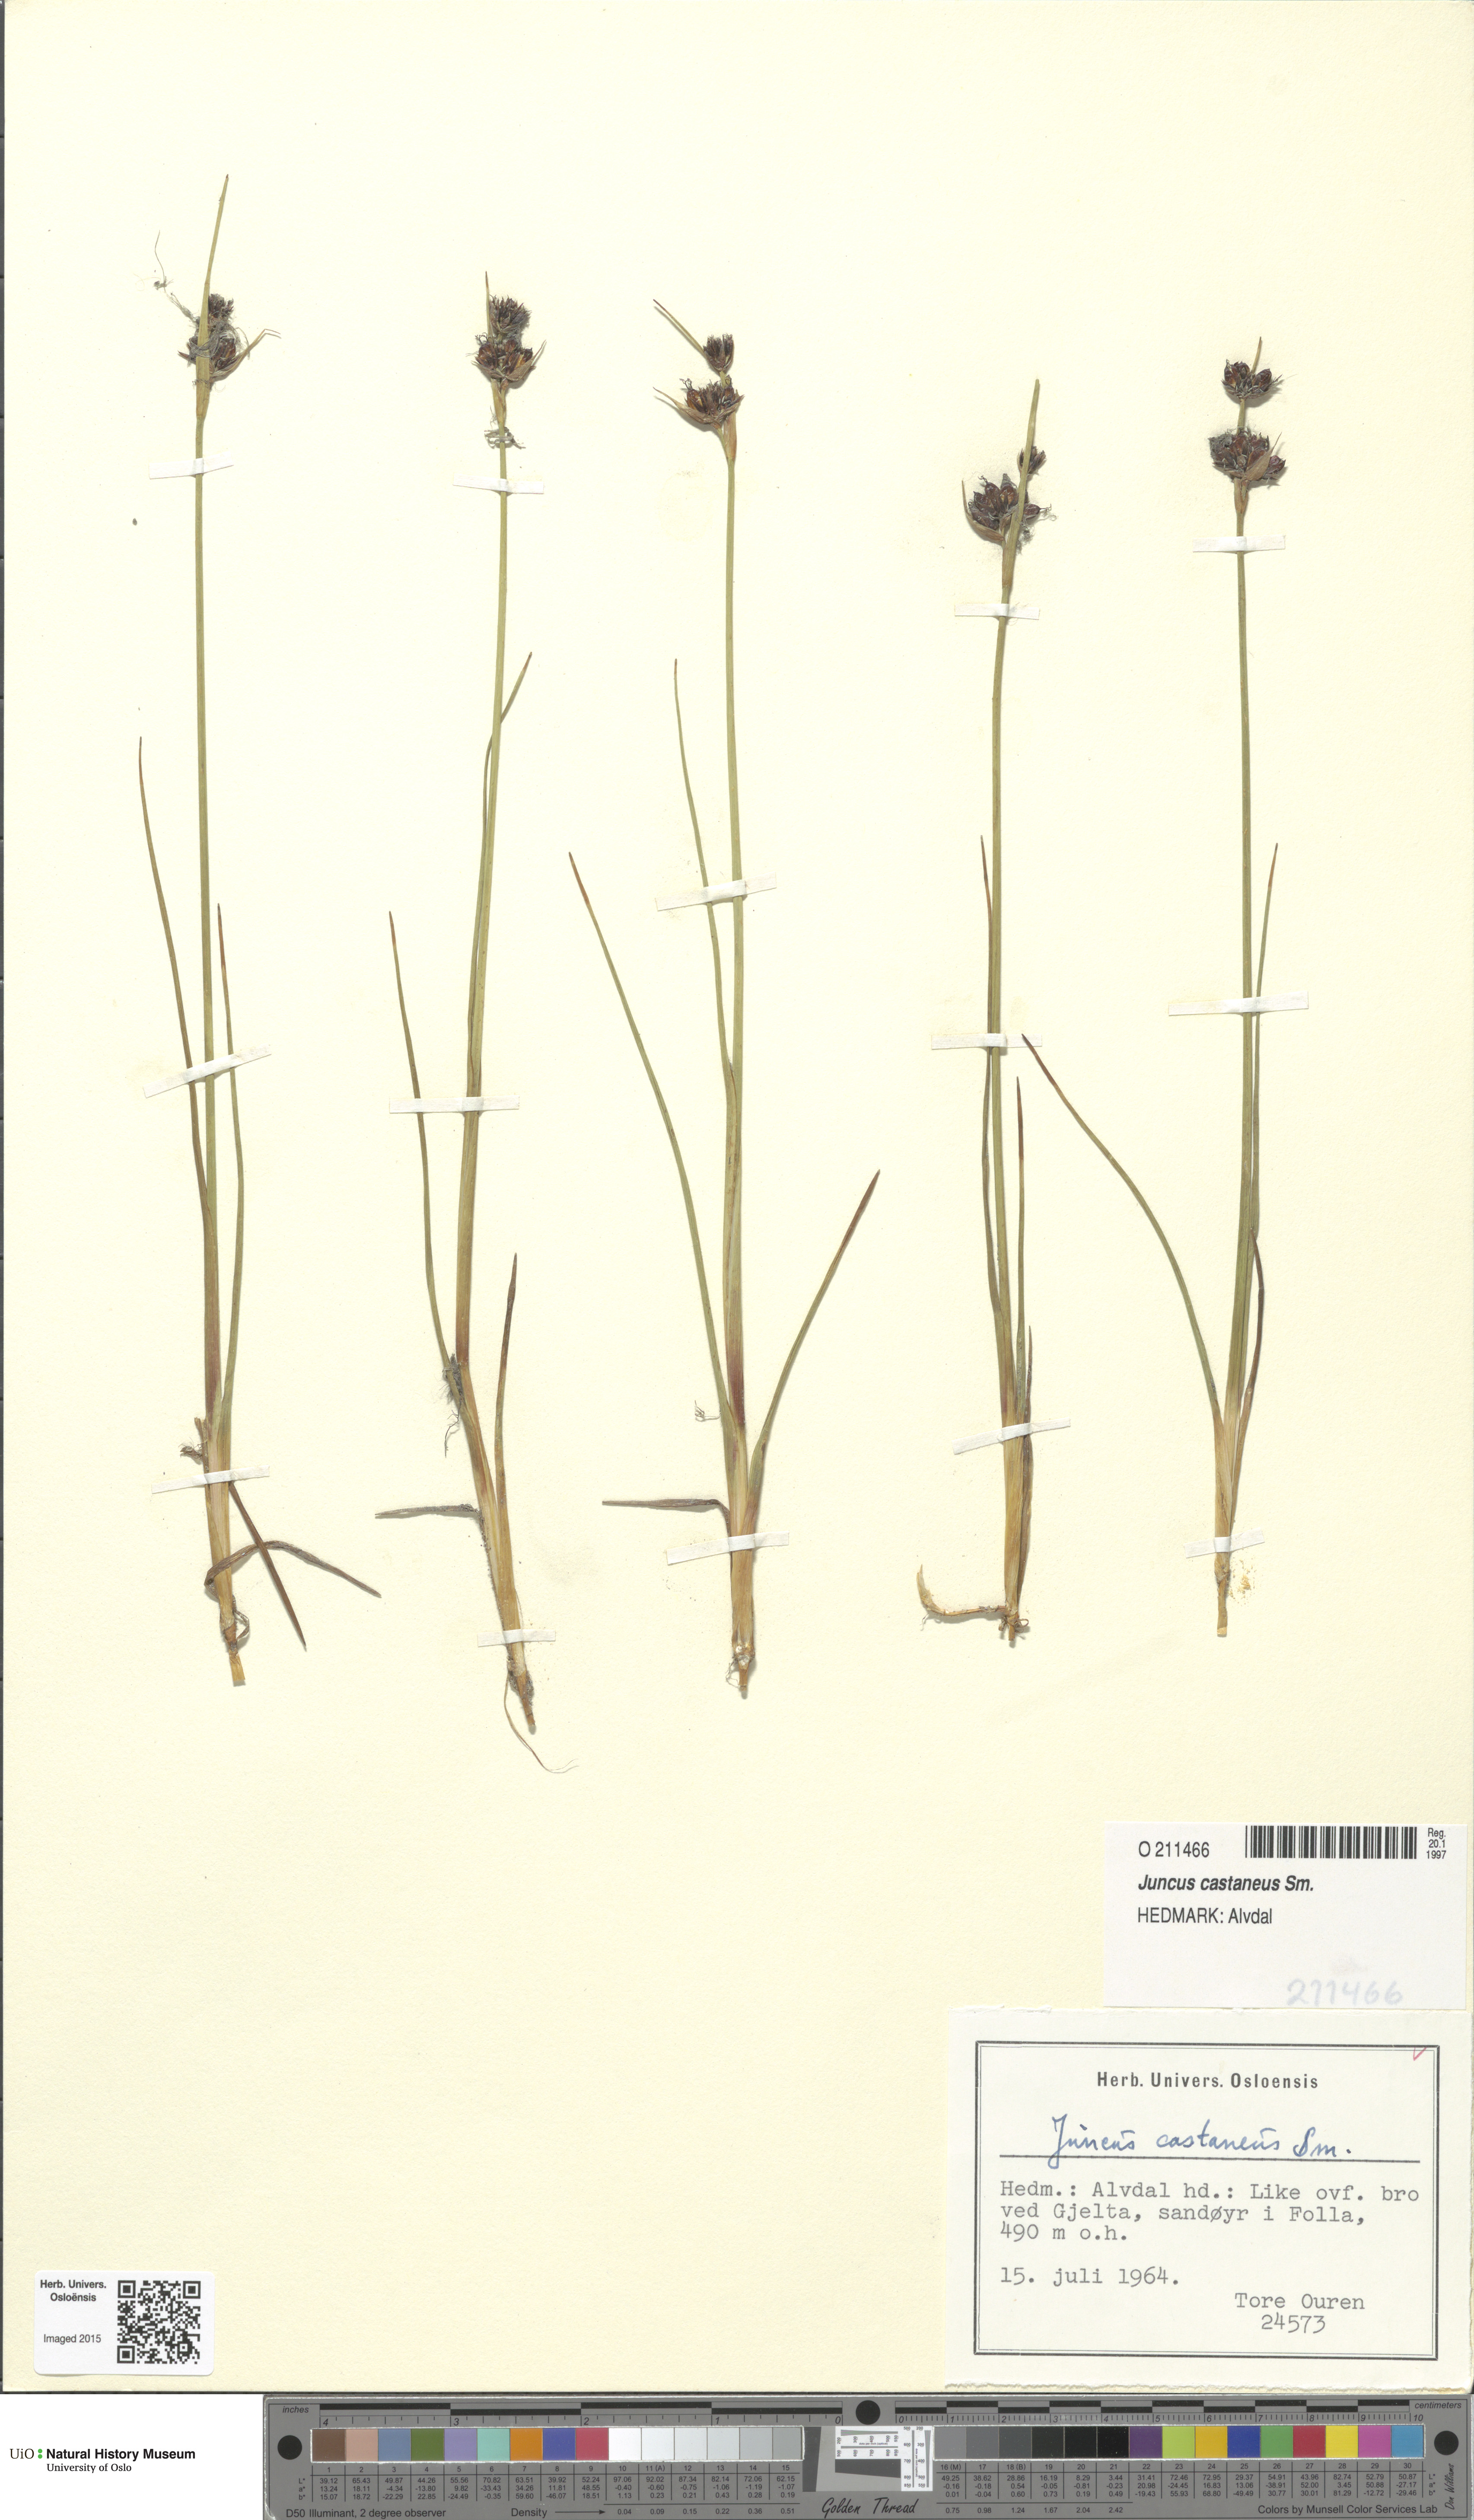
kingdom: Plantae
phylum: Tracheophyta
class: Liliopsida
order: Poales
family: Juncaceae
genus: Juncus
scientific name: Juncus castaneus
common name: Chestnut rush
